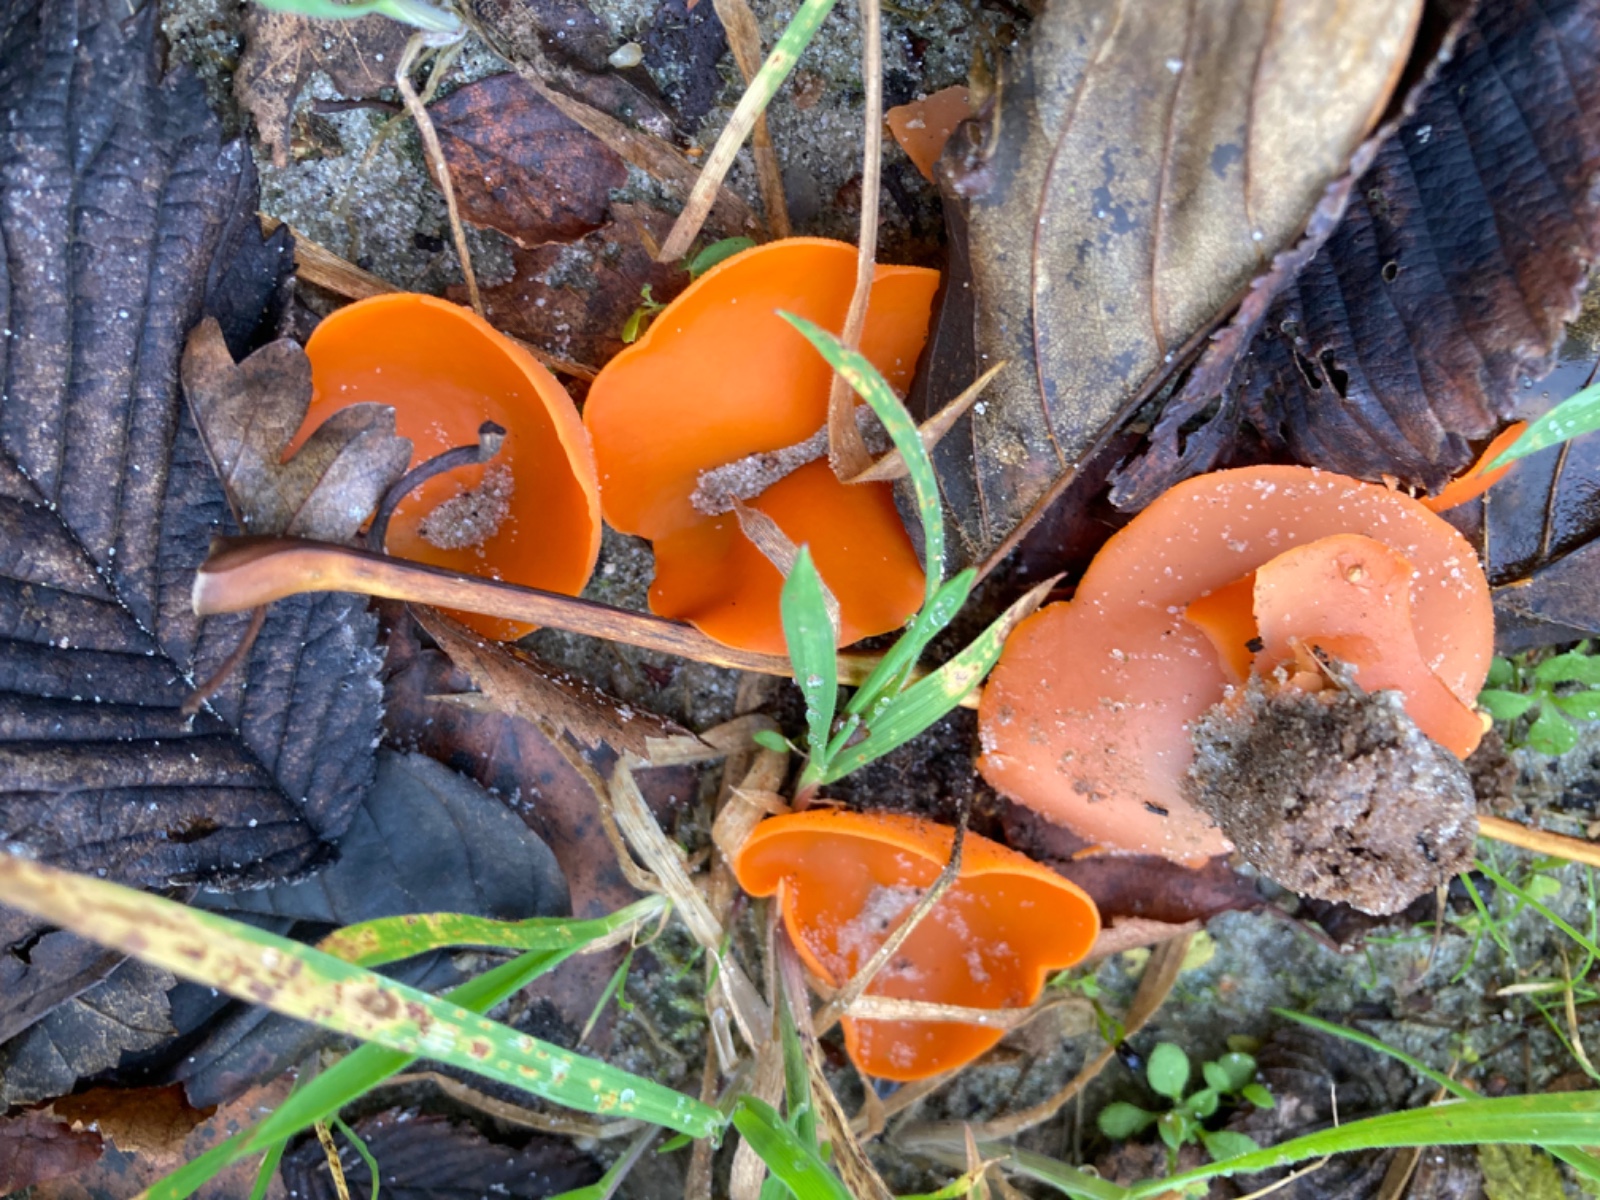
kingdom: Fungi
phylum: Ascomycota
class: Pezizomycetes
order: Pezizales
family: Pyronemataceae
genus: Aleuria
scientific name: Aleuria aurantia
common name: almindelig orangebæger
